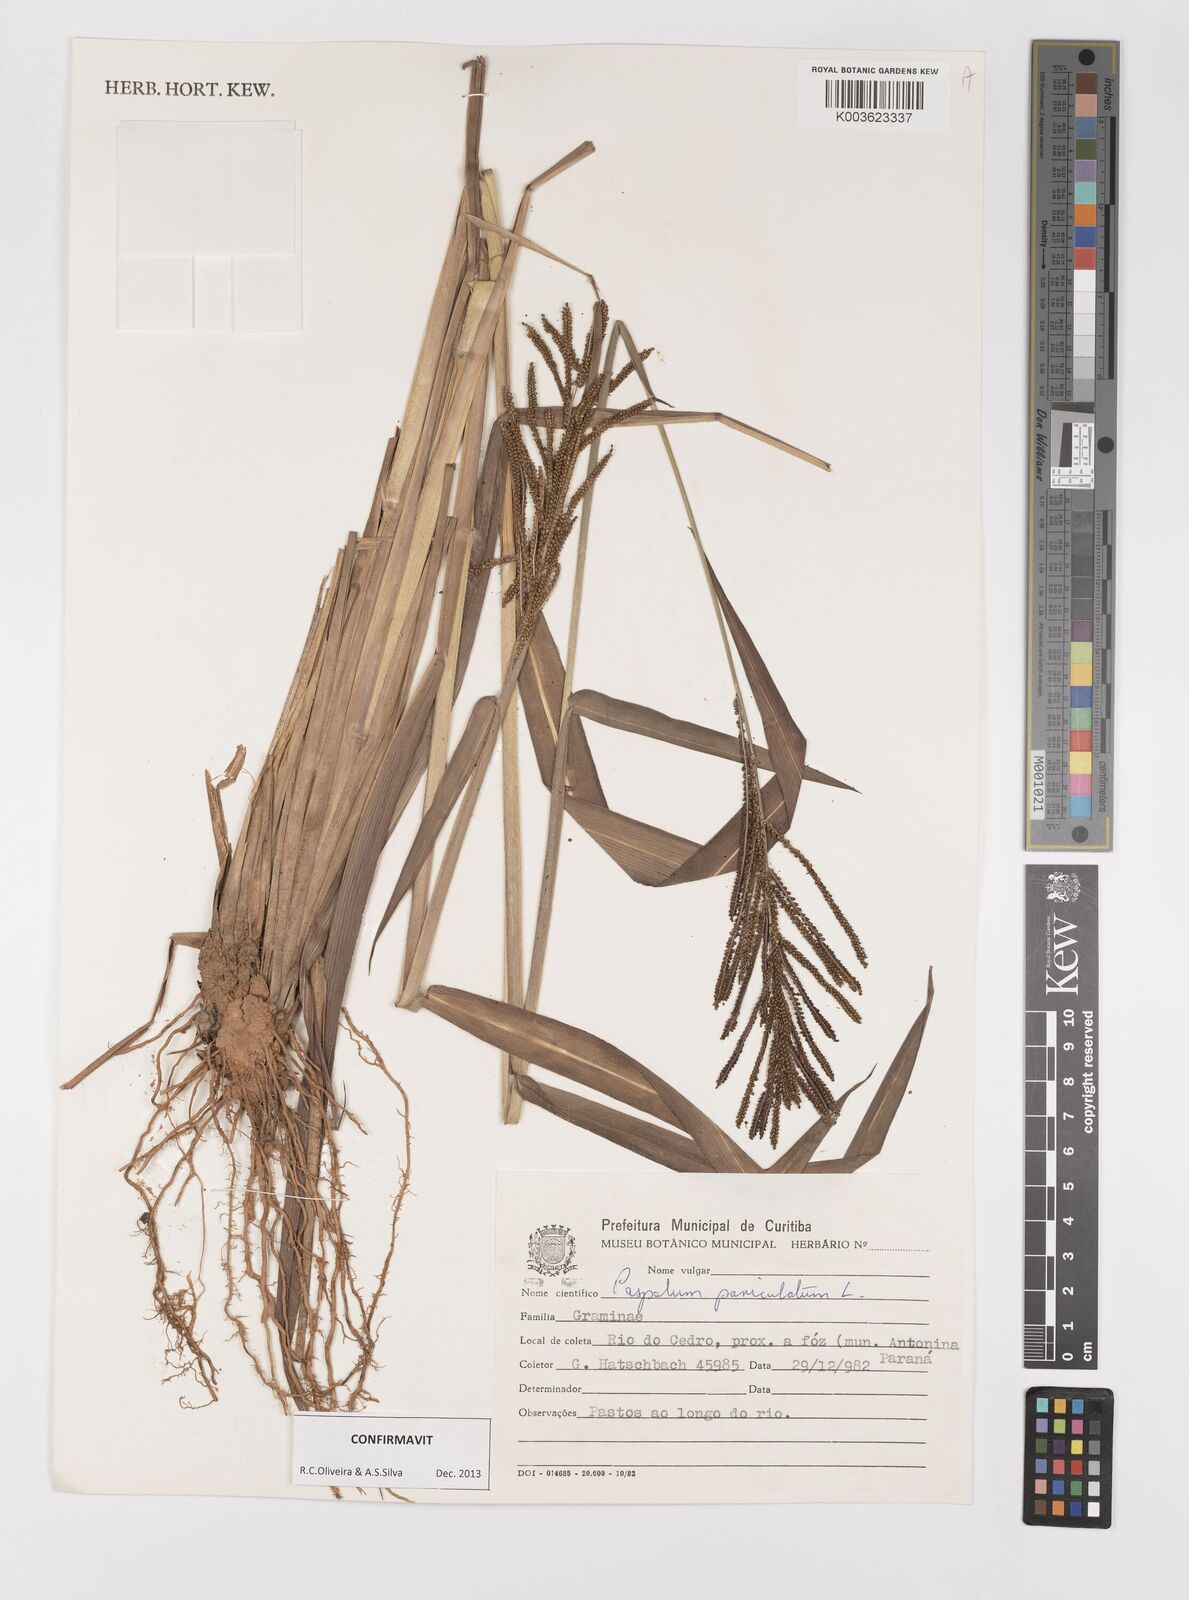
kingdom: Plantae
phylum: Tracheophyta
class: Liliopsida
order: Poales
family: Poaceae
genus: Paspalum
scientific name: Paspalum paniculatum
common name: Arrocillo
